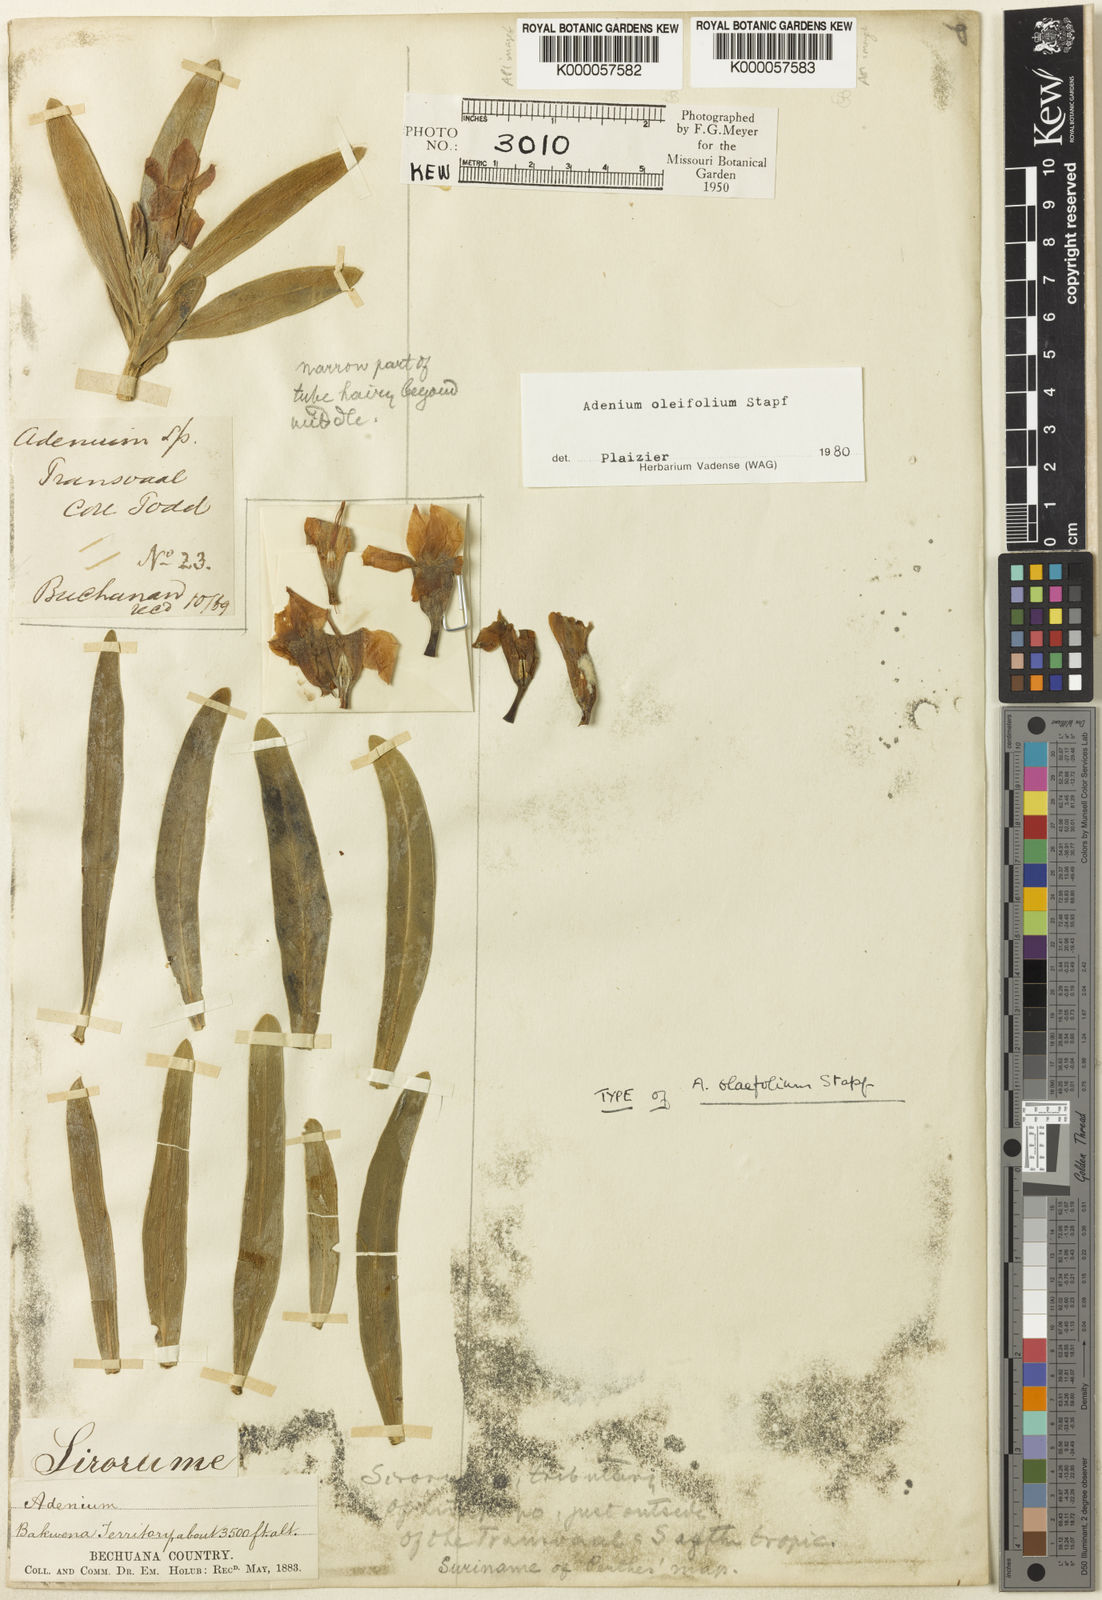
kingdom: Plantae
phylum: Tracheophyta
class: Magnoliopsida
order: Gentianales
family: Apocynaceae
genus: Adenium
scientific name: Adenium obesum
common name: Desert-rose
